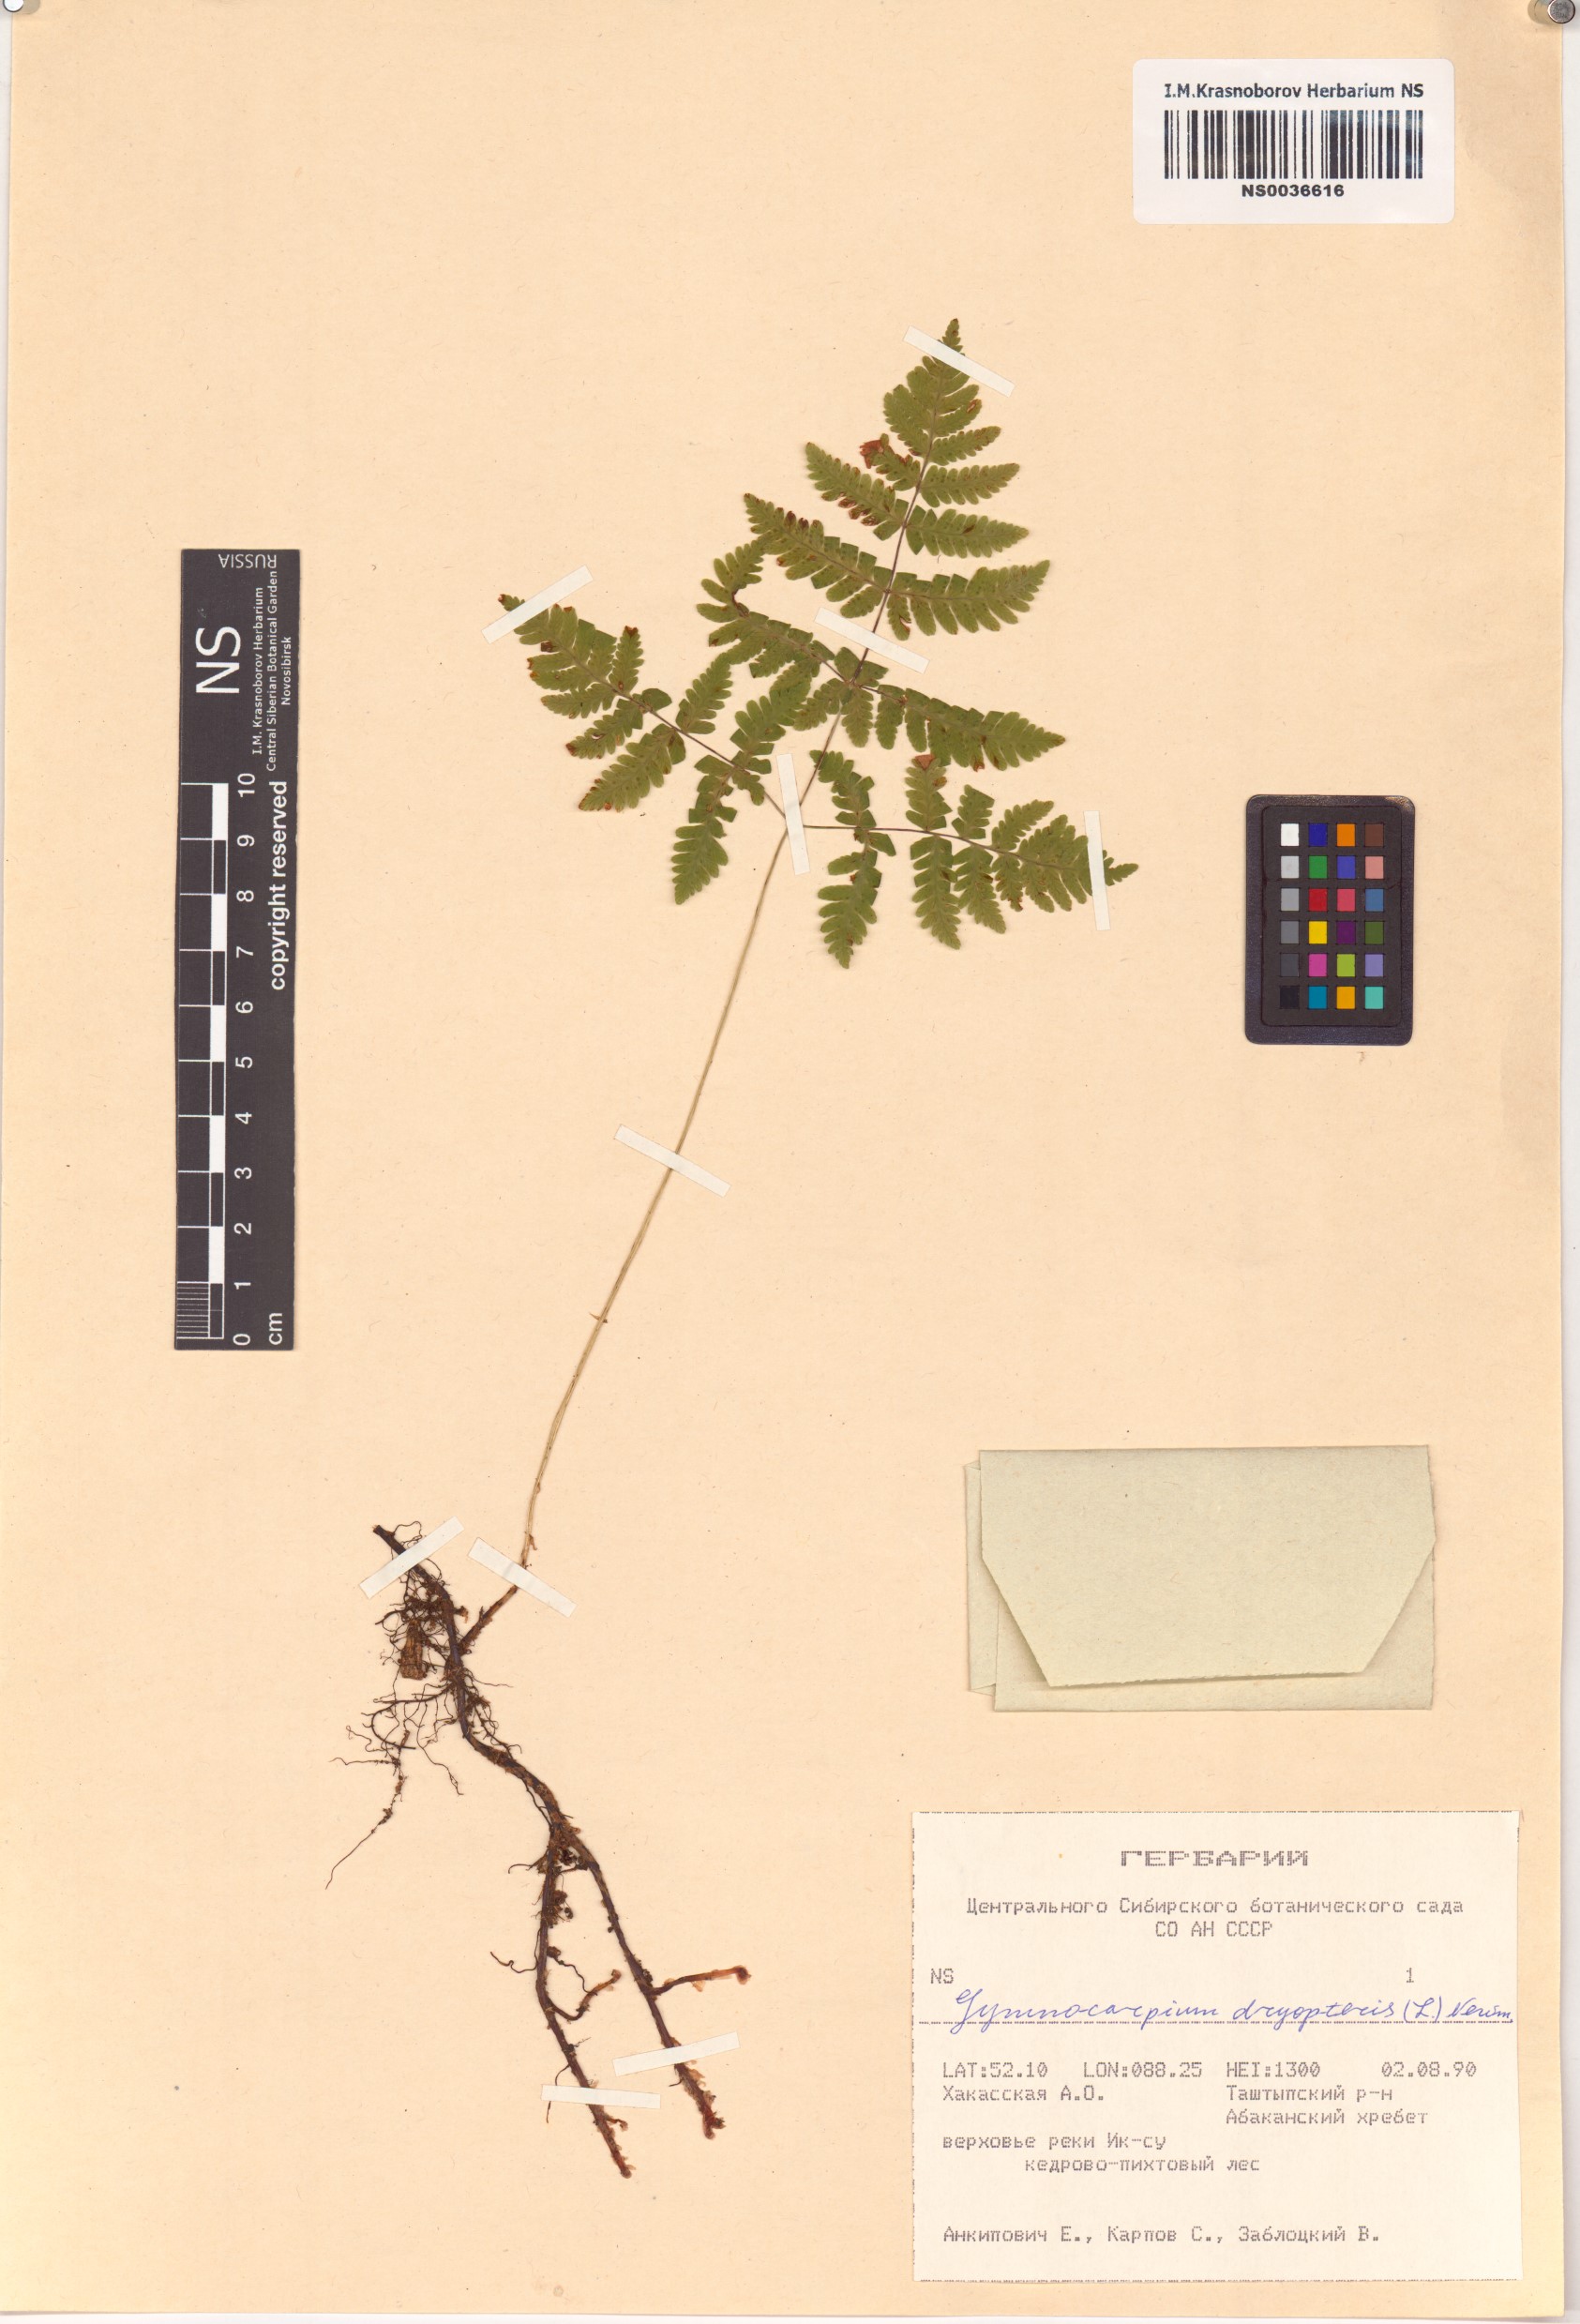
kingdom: Plantae
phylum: Tracheophyta
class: Polypodiopsida
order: Polypodiales
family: Cystopteridaceae
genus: Gymnocarpium
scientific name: Gymnocarpium dryopteris
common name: Oak fern
